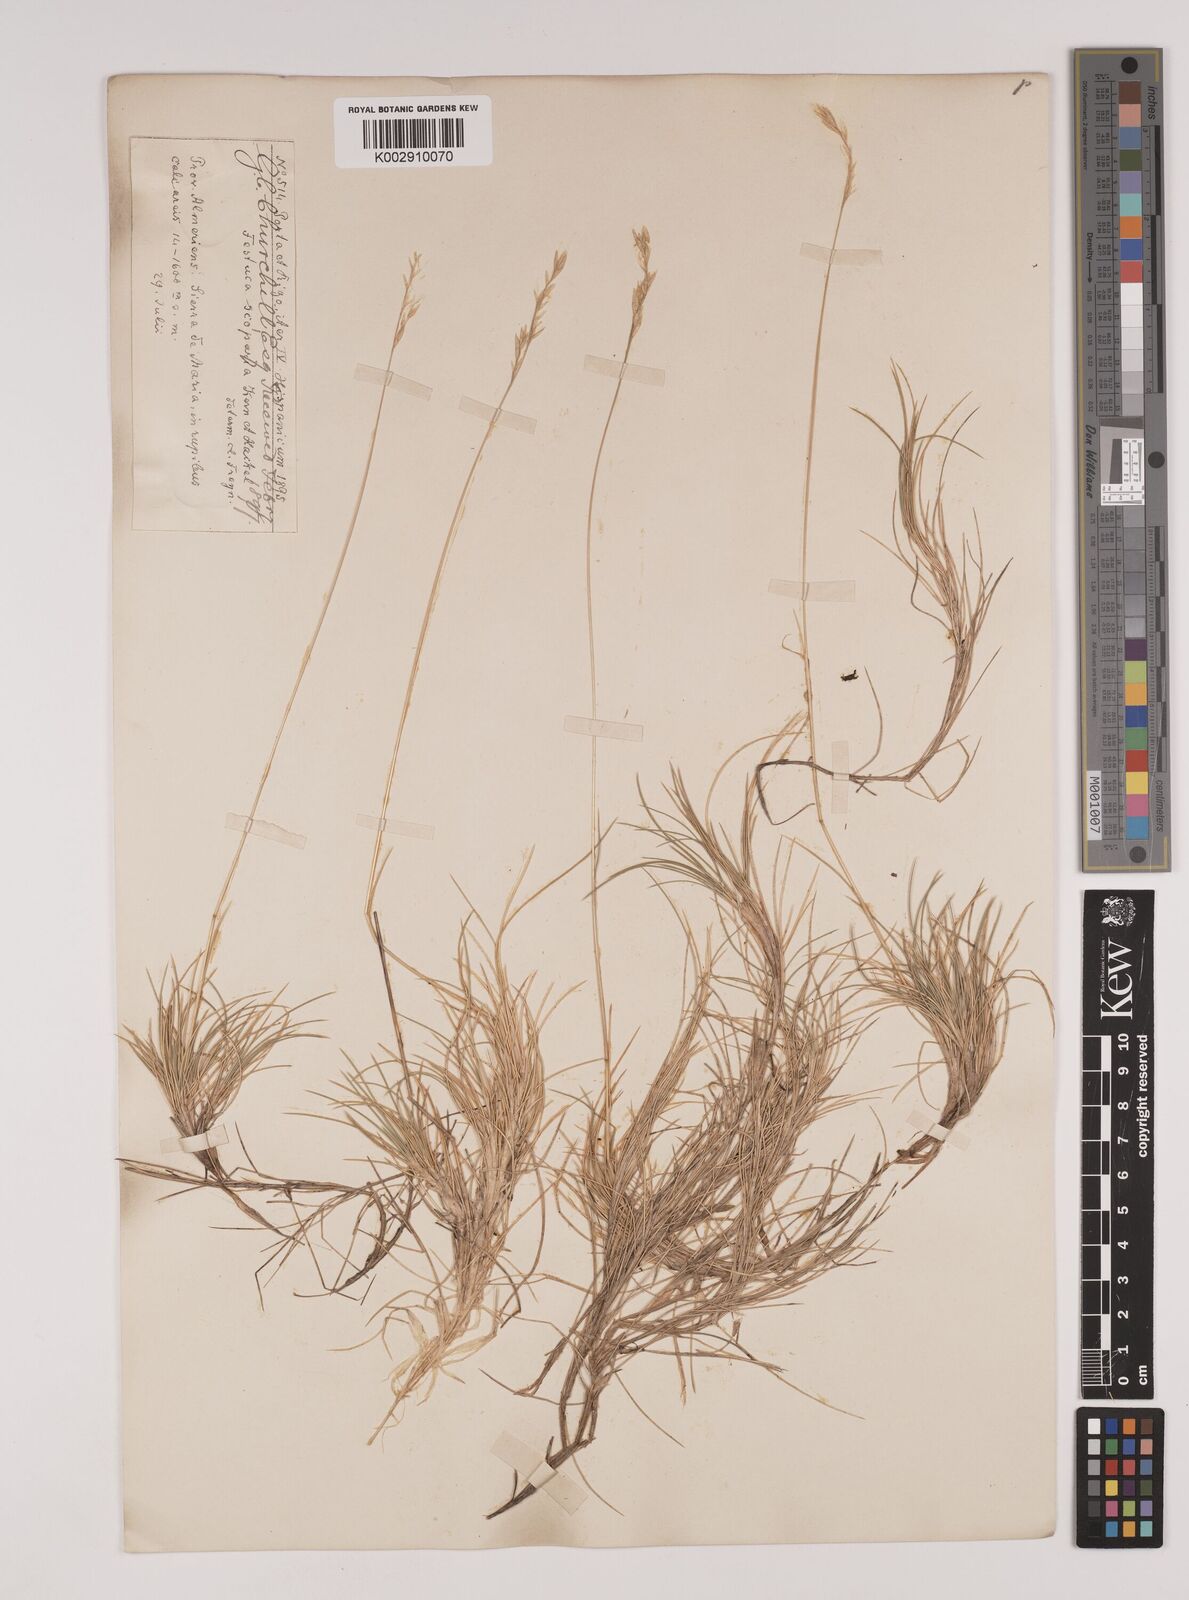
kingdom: Plantae
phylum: Tracheophyta
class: Liliopsida
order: Poales
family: Poaceae
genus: Festuca
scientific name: Festuca gautieri
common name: Spiky fescue
